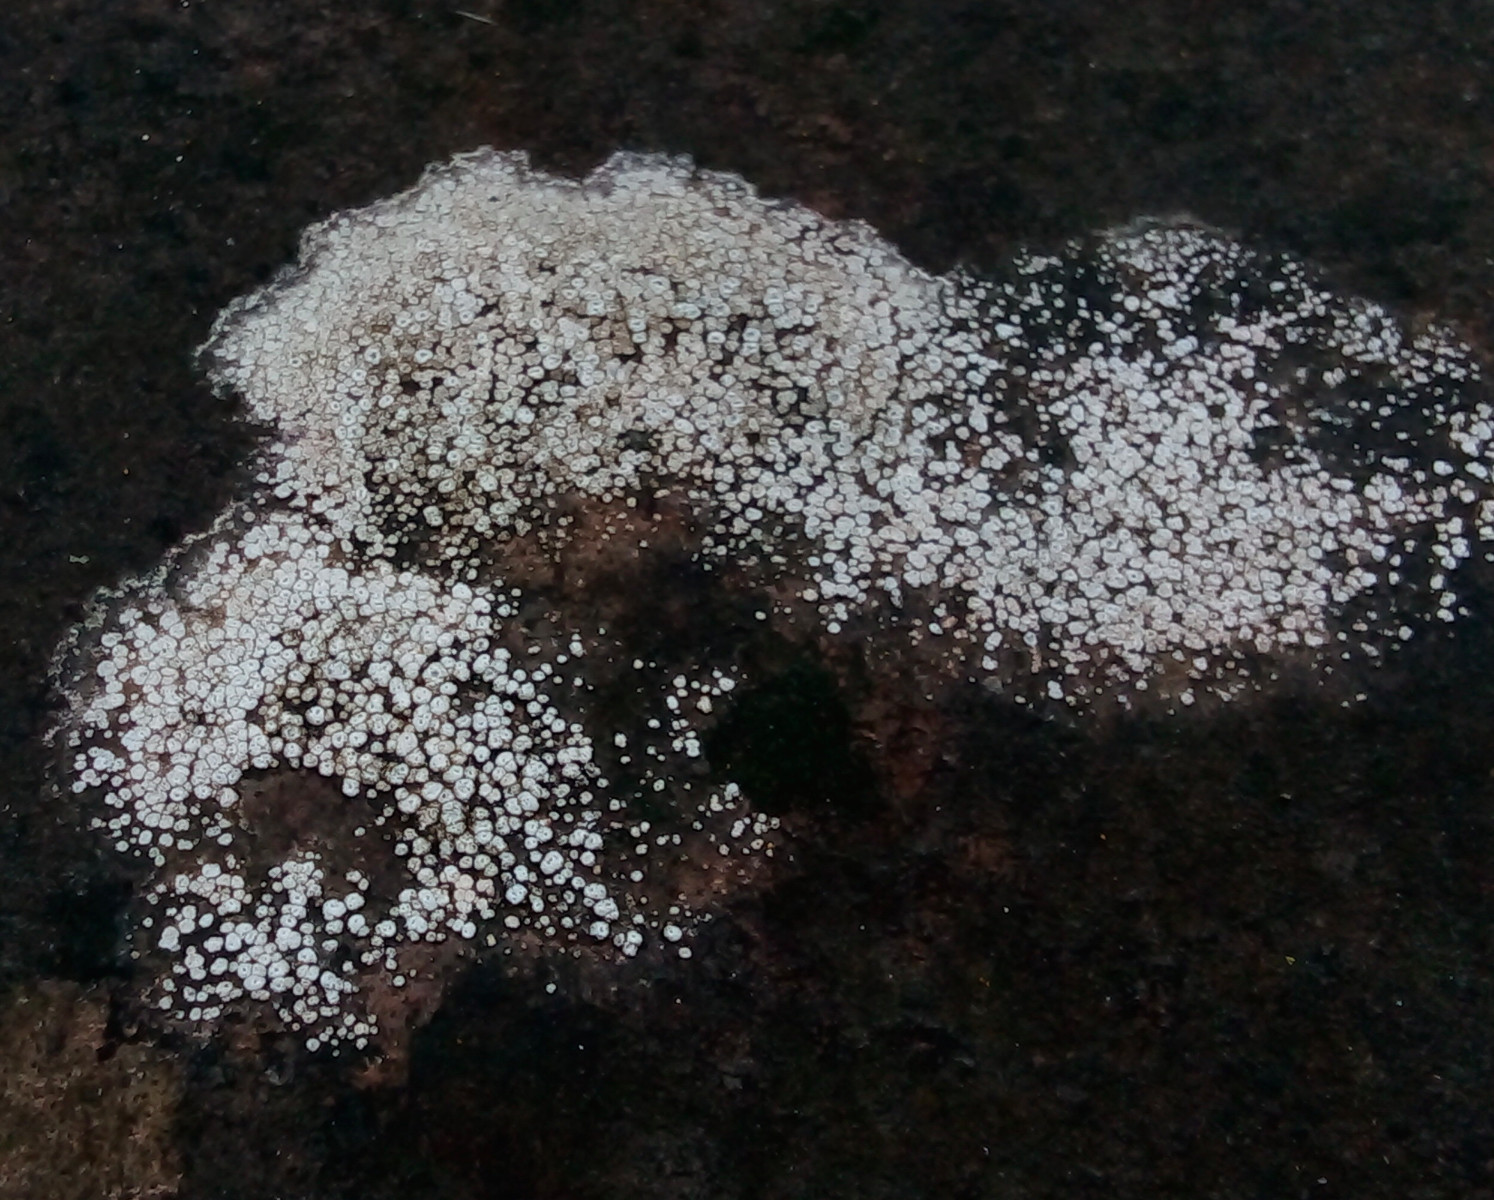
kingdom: Fungi
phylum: Ascomycota
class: Lecanoromycetes
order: Pertusariales
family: Megasporaceae
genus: Circinaria
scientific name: Circinaria contorta
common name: indviklet hulskivelav
